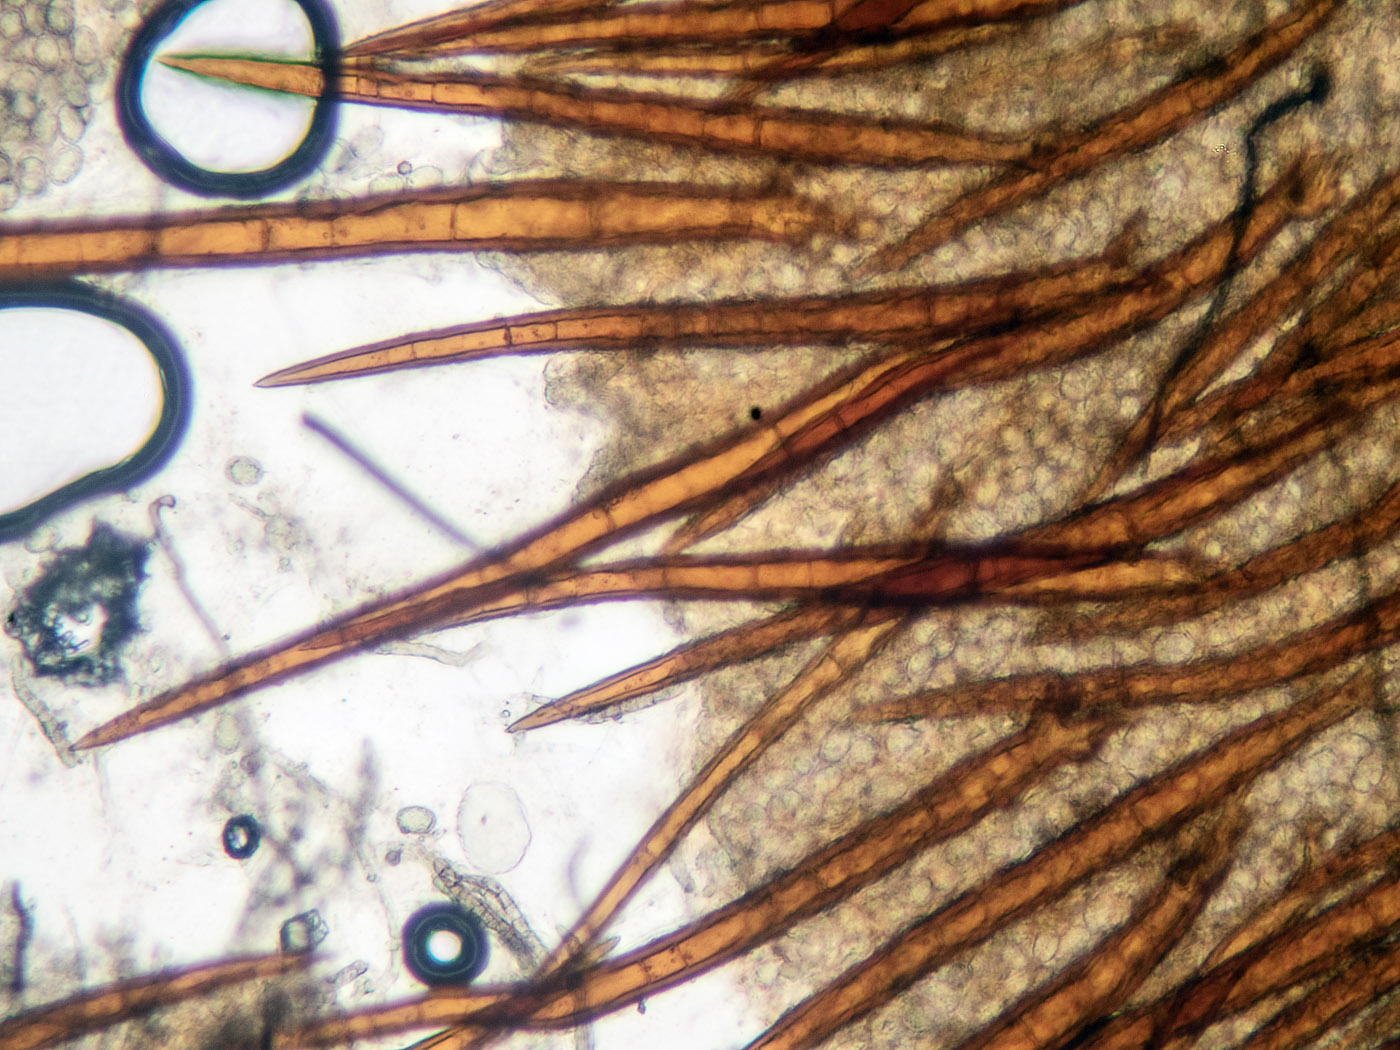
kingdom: Fungi
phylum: Ascomycota
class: Pezizomycetes
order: Pezizales
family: Pyronemataceae
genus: Scutellinia
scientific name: Scutellinia crinita
